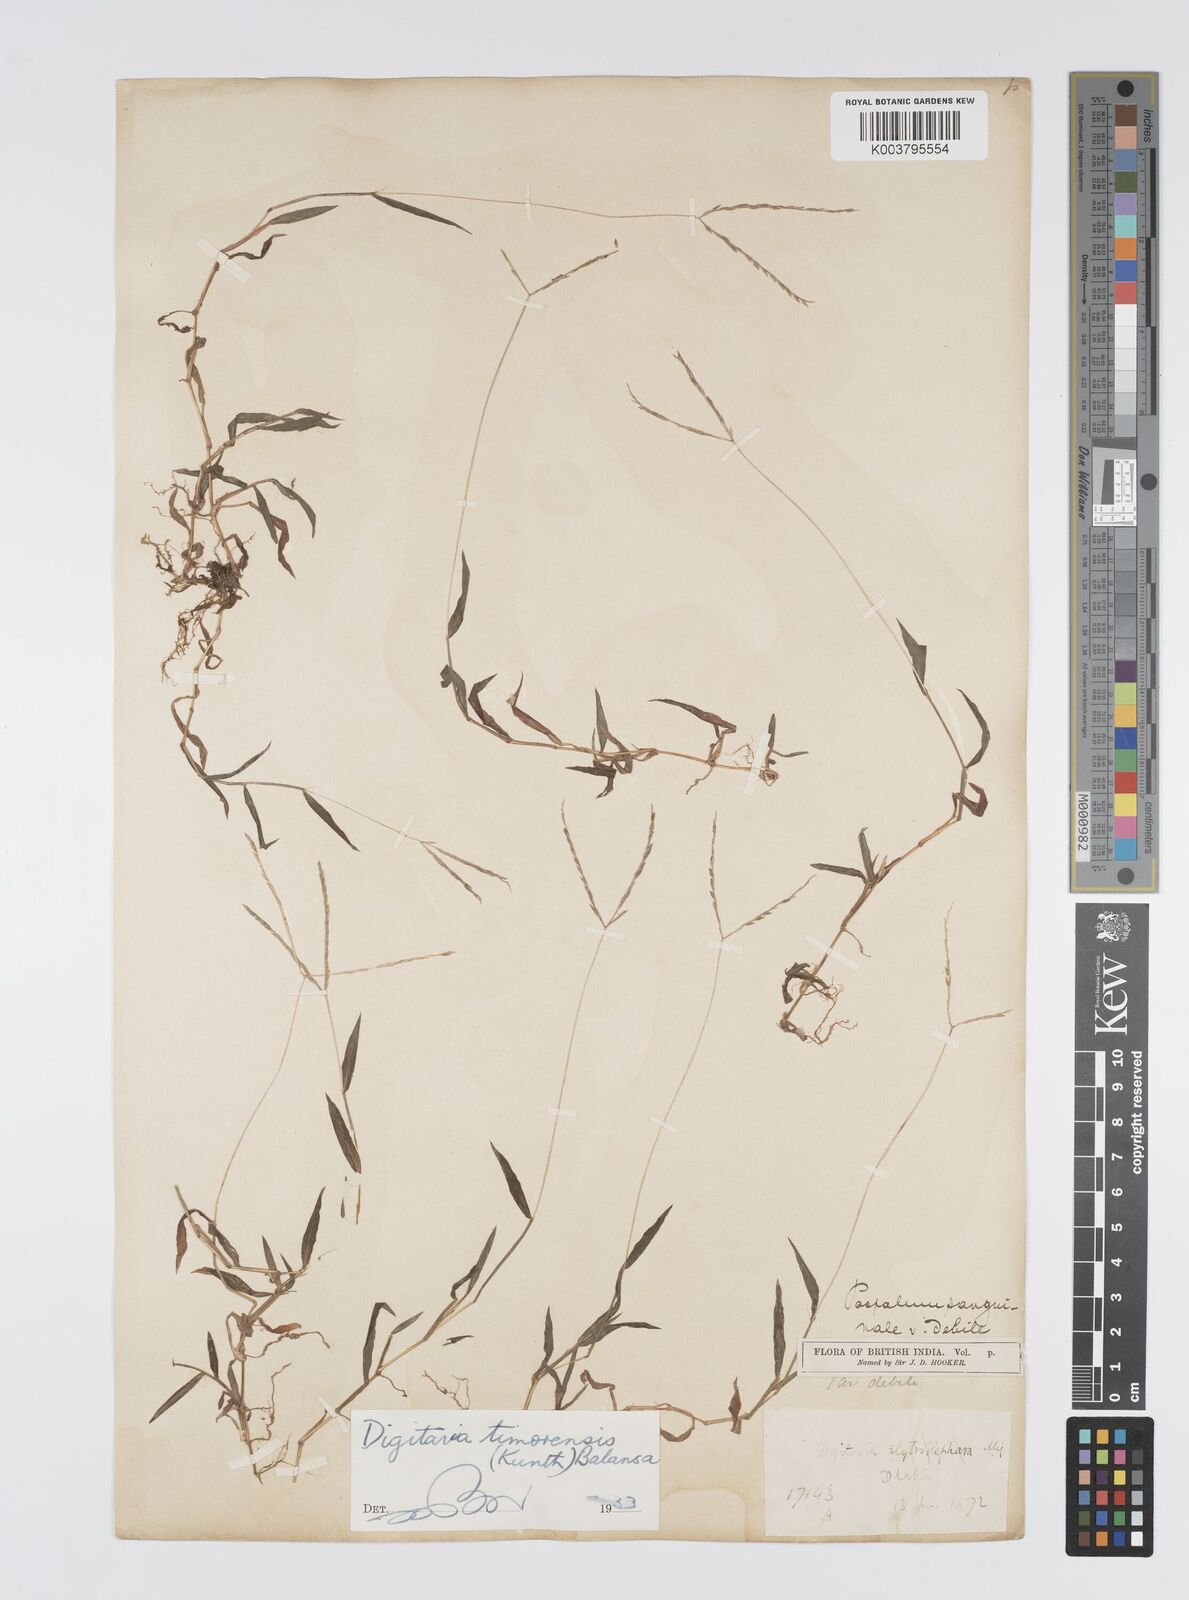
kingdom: Plantae
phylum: Tracheophyta
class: Liliopsida
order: Poales
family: Poaceae
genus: Digitaria
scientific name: Digitaria radicosa
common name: Trailing crabgrass
